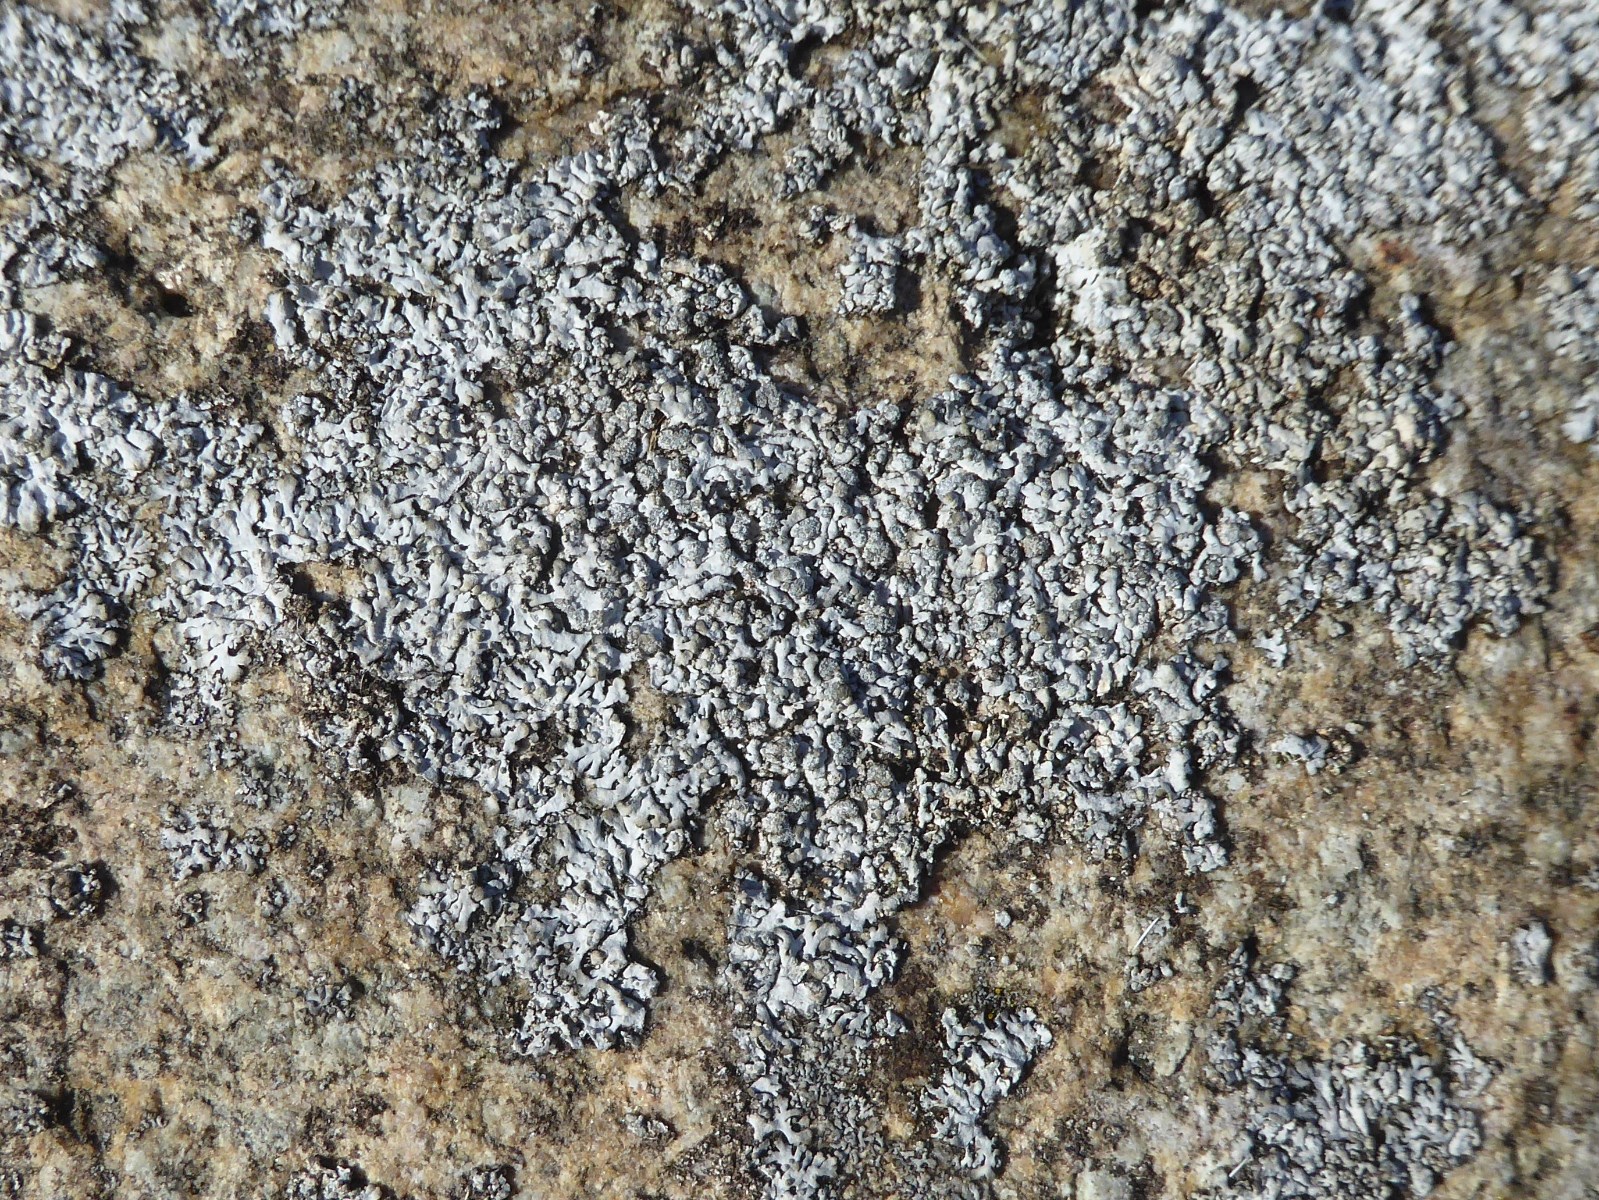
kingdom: Fungi
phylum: Ascomycota
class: Lecanoromycetes
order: Caliciales
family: Physciaceae
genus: Physcia
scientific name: Physcia caesia
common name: blågrå rosetlav
